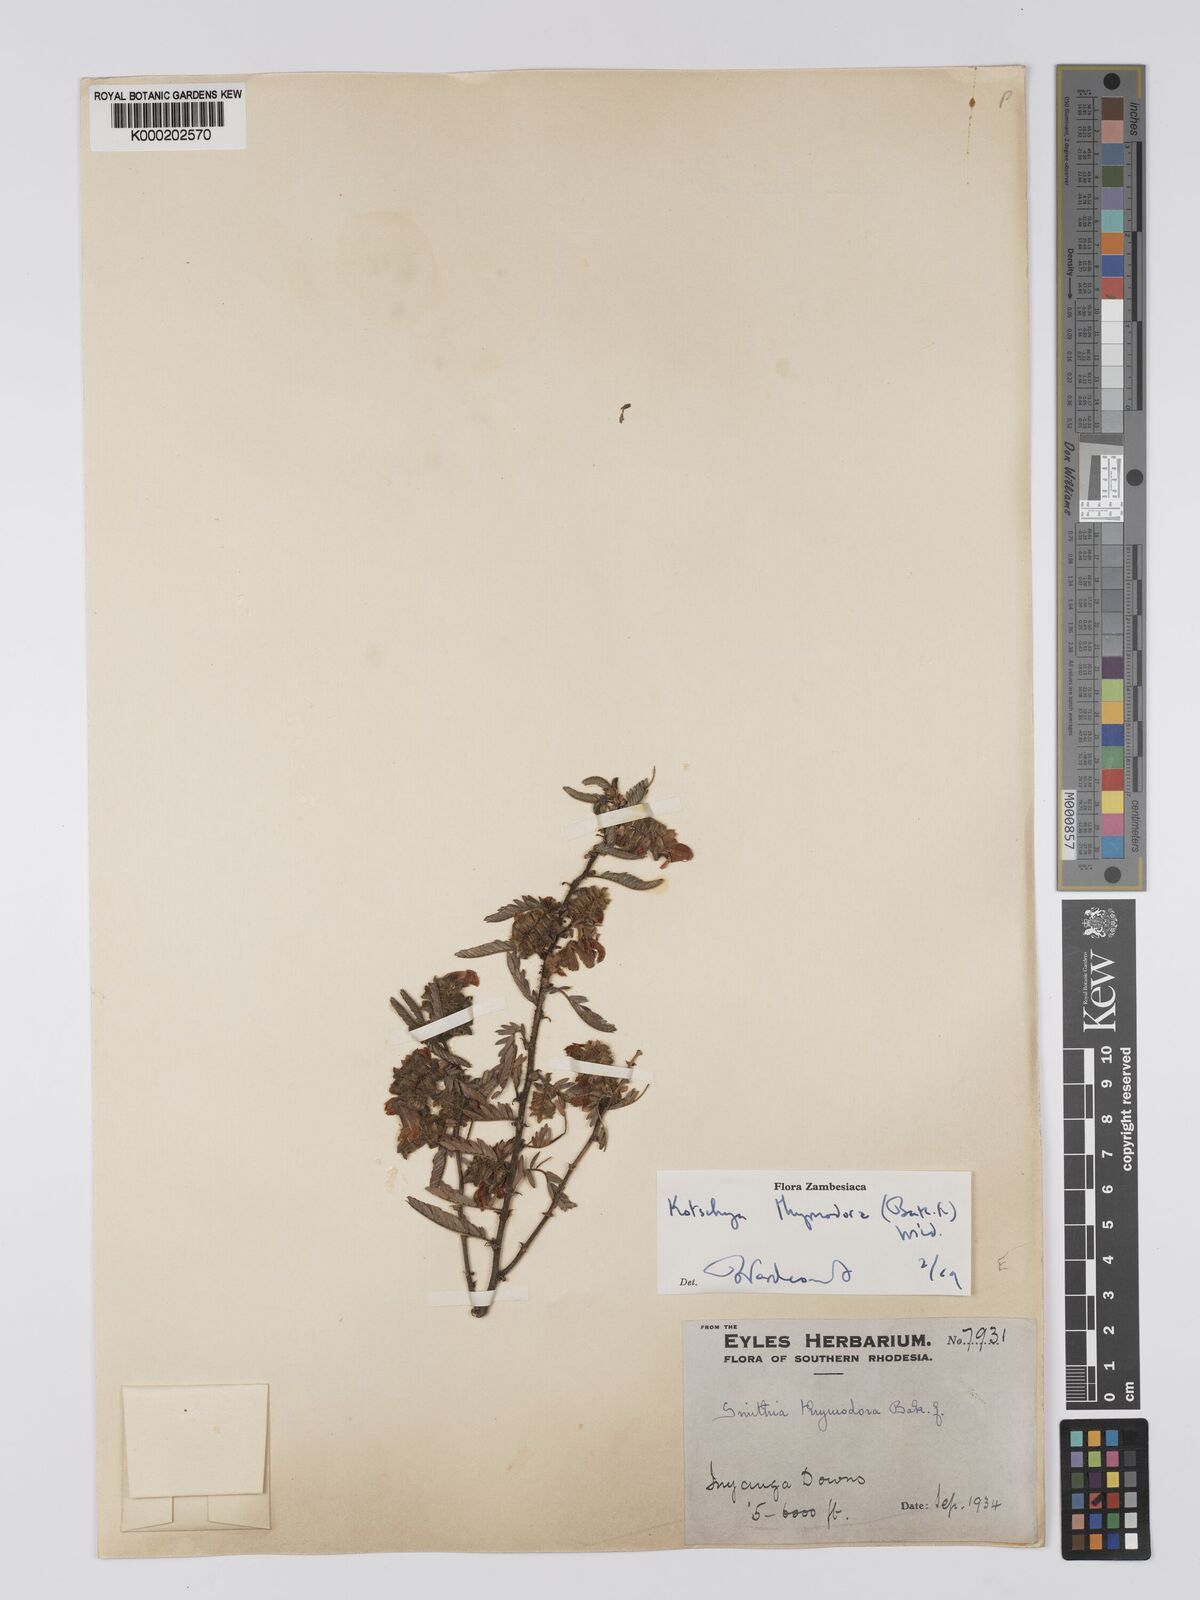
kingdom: Plantae
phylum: Tracheophyta
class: Magnoliopsida
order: Fabales
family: Fabaceae
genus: Kotschya
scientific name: Kotschya thymodora
